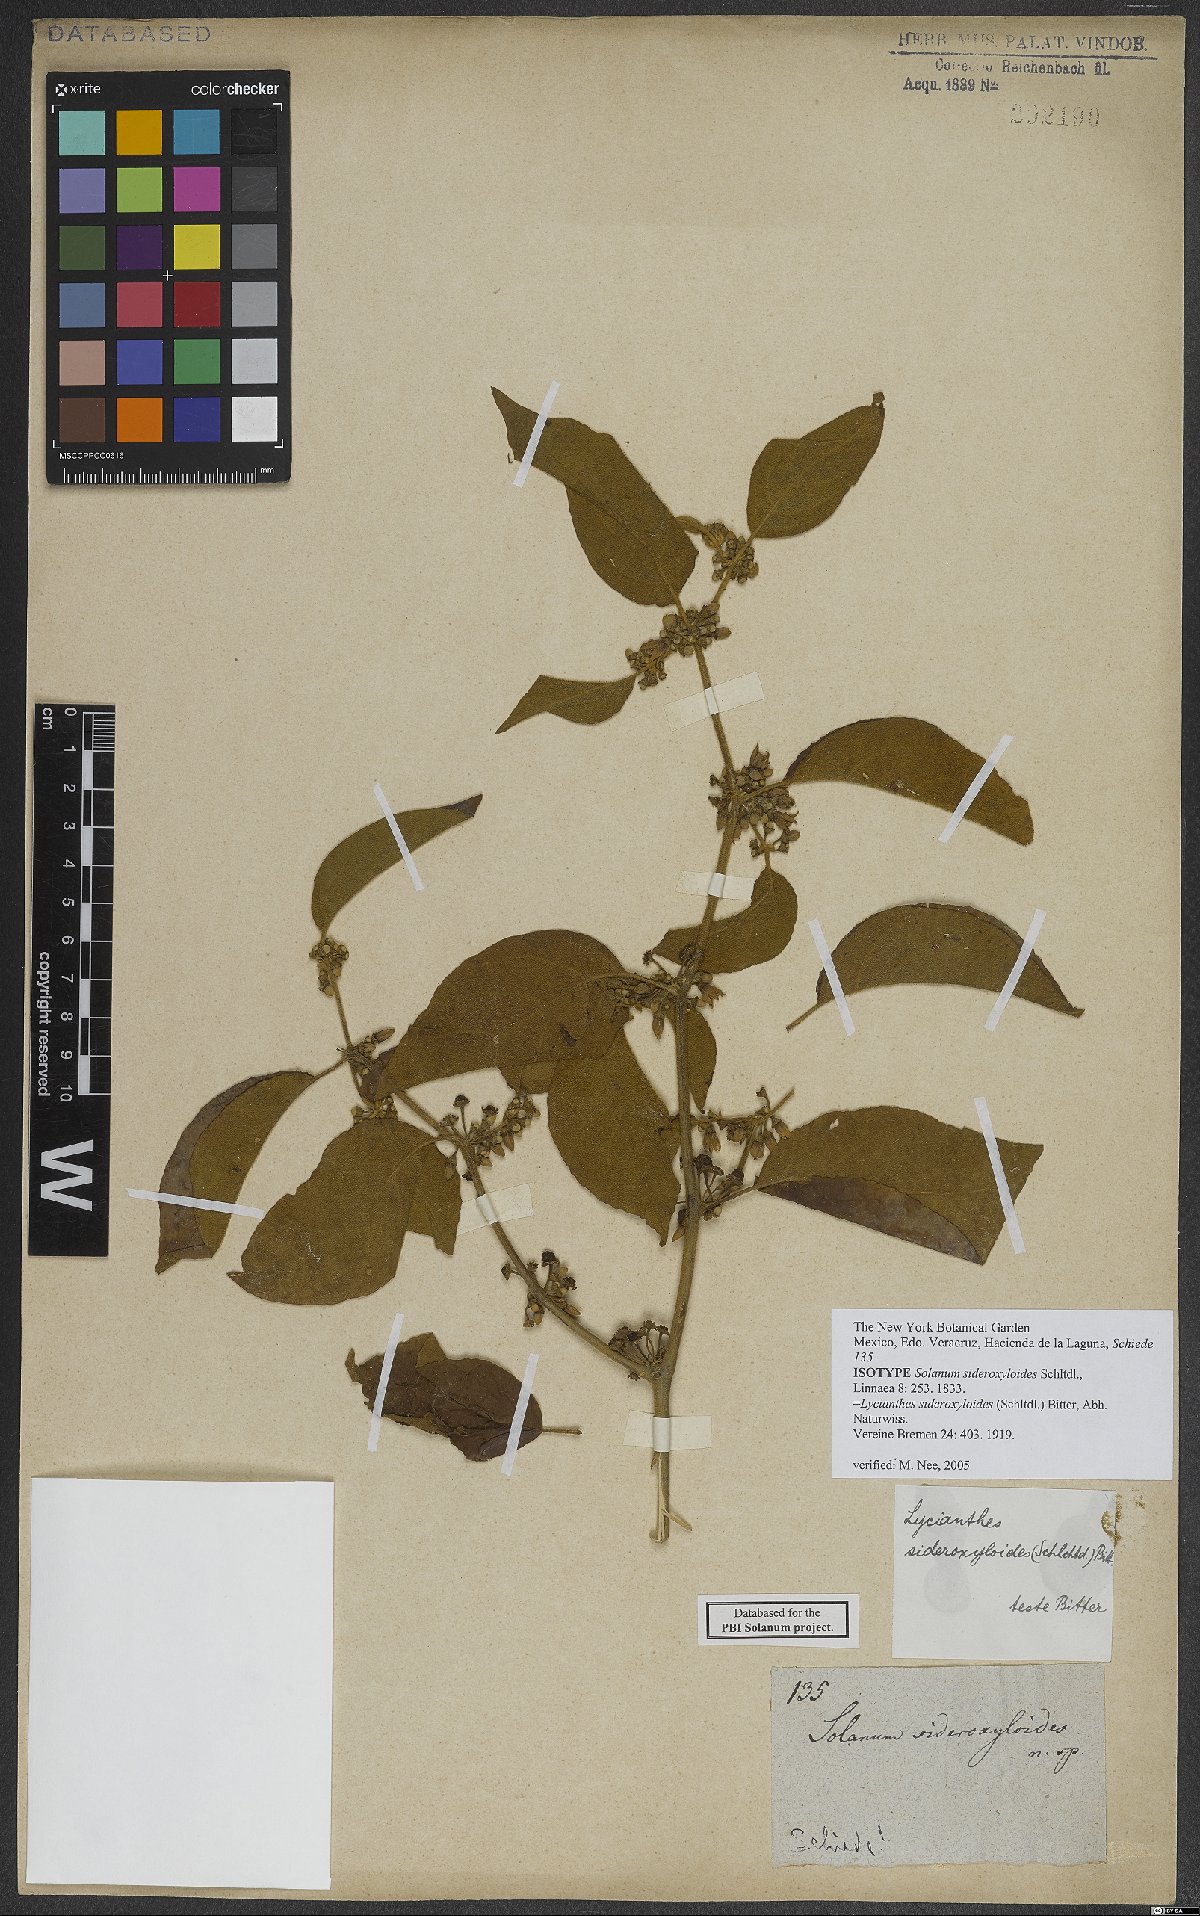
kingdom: Plantae
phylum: Tracheophyta
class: Magnoliopsida
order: Solanales
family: Solanaceae
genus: Lycianthes
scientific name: Lycianthes sideroxyloides
